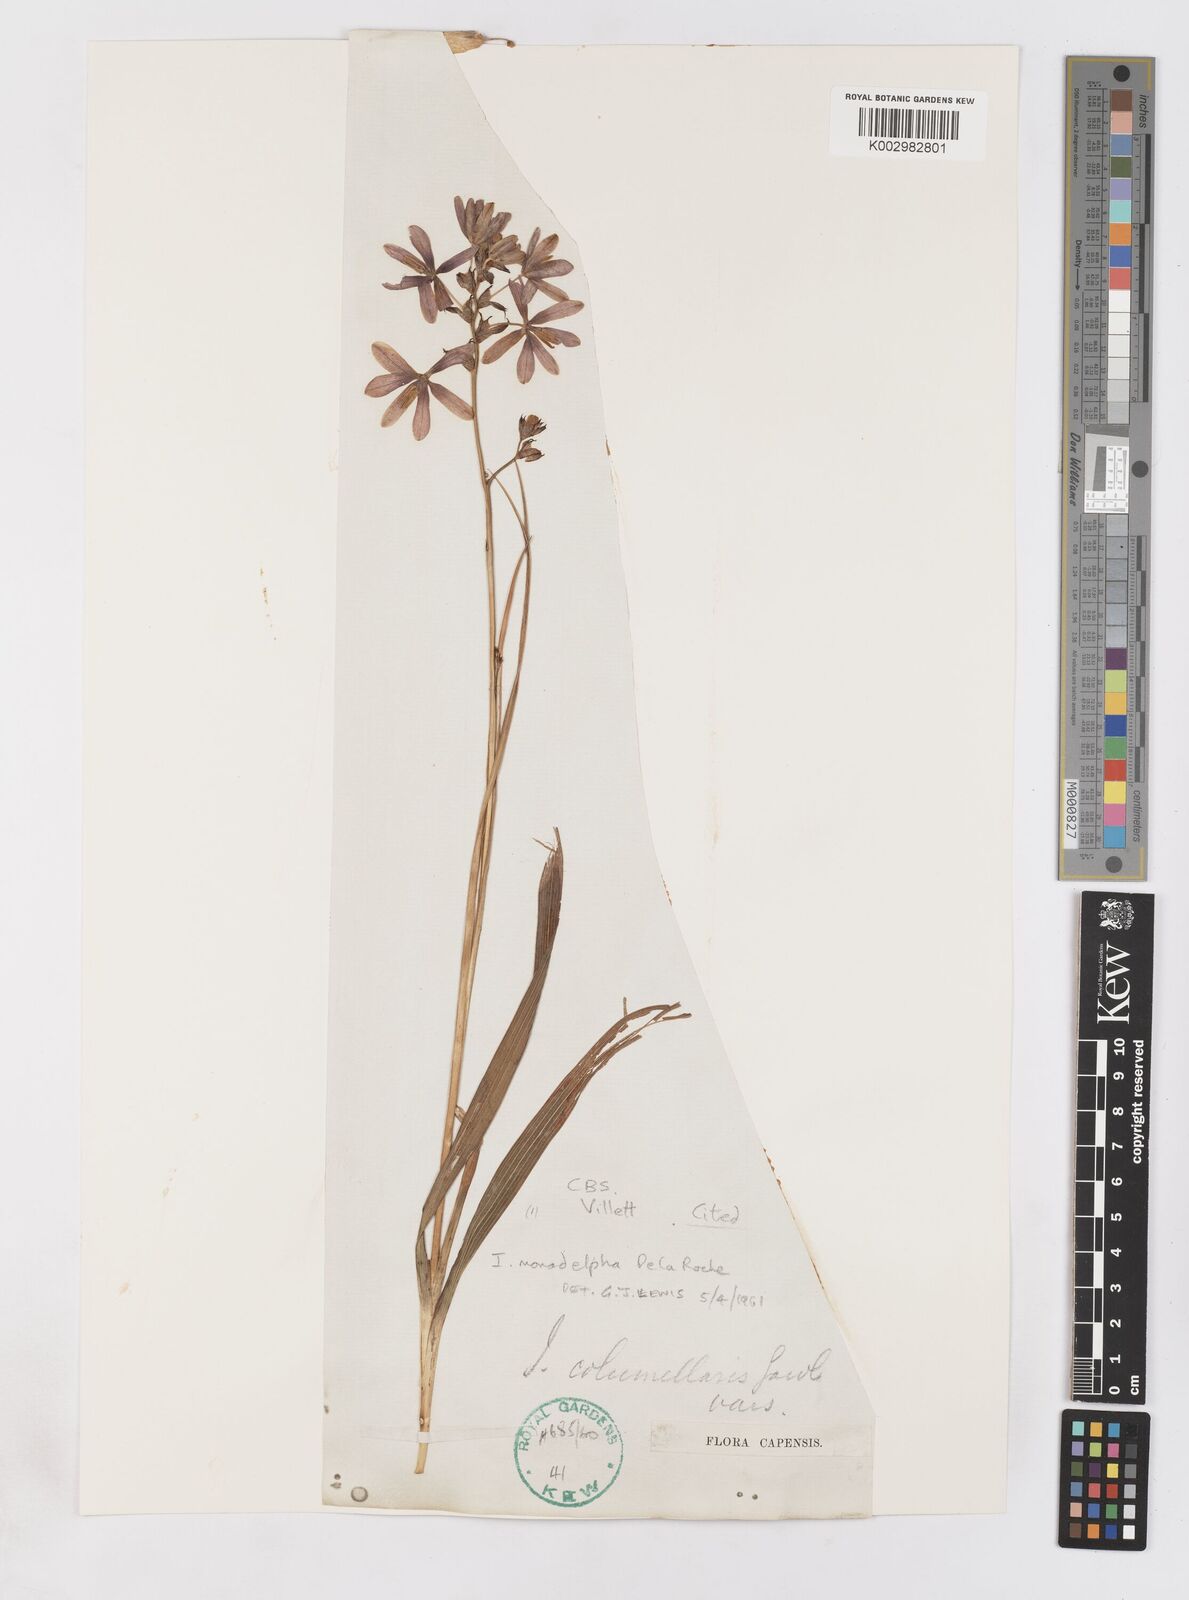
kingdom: Plantae
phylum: Tracheophyta
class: Liliopsida
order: Asparagales
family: Iridaceae
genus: Ixia
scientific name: Ixia monadelpha
